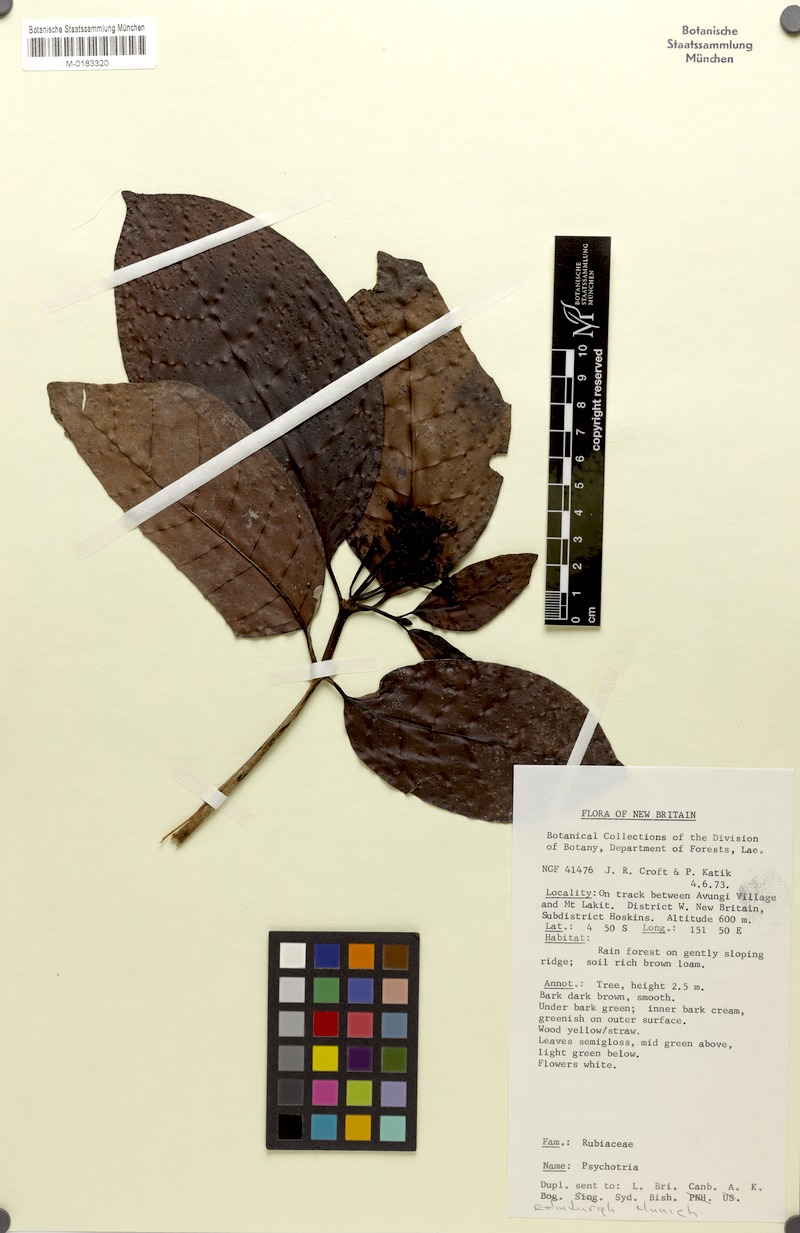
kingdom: Plantae
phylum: Tracheophyta
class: Magnoliopsida
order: Gentianales
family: Rubiaceae
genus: Psychotria
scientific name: Psychotria talasensis
